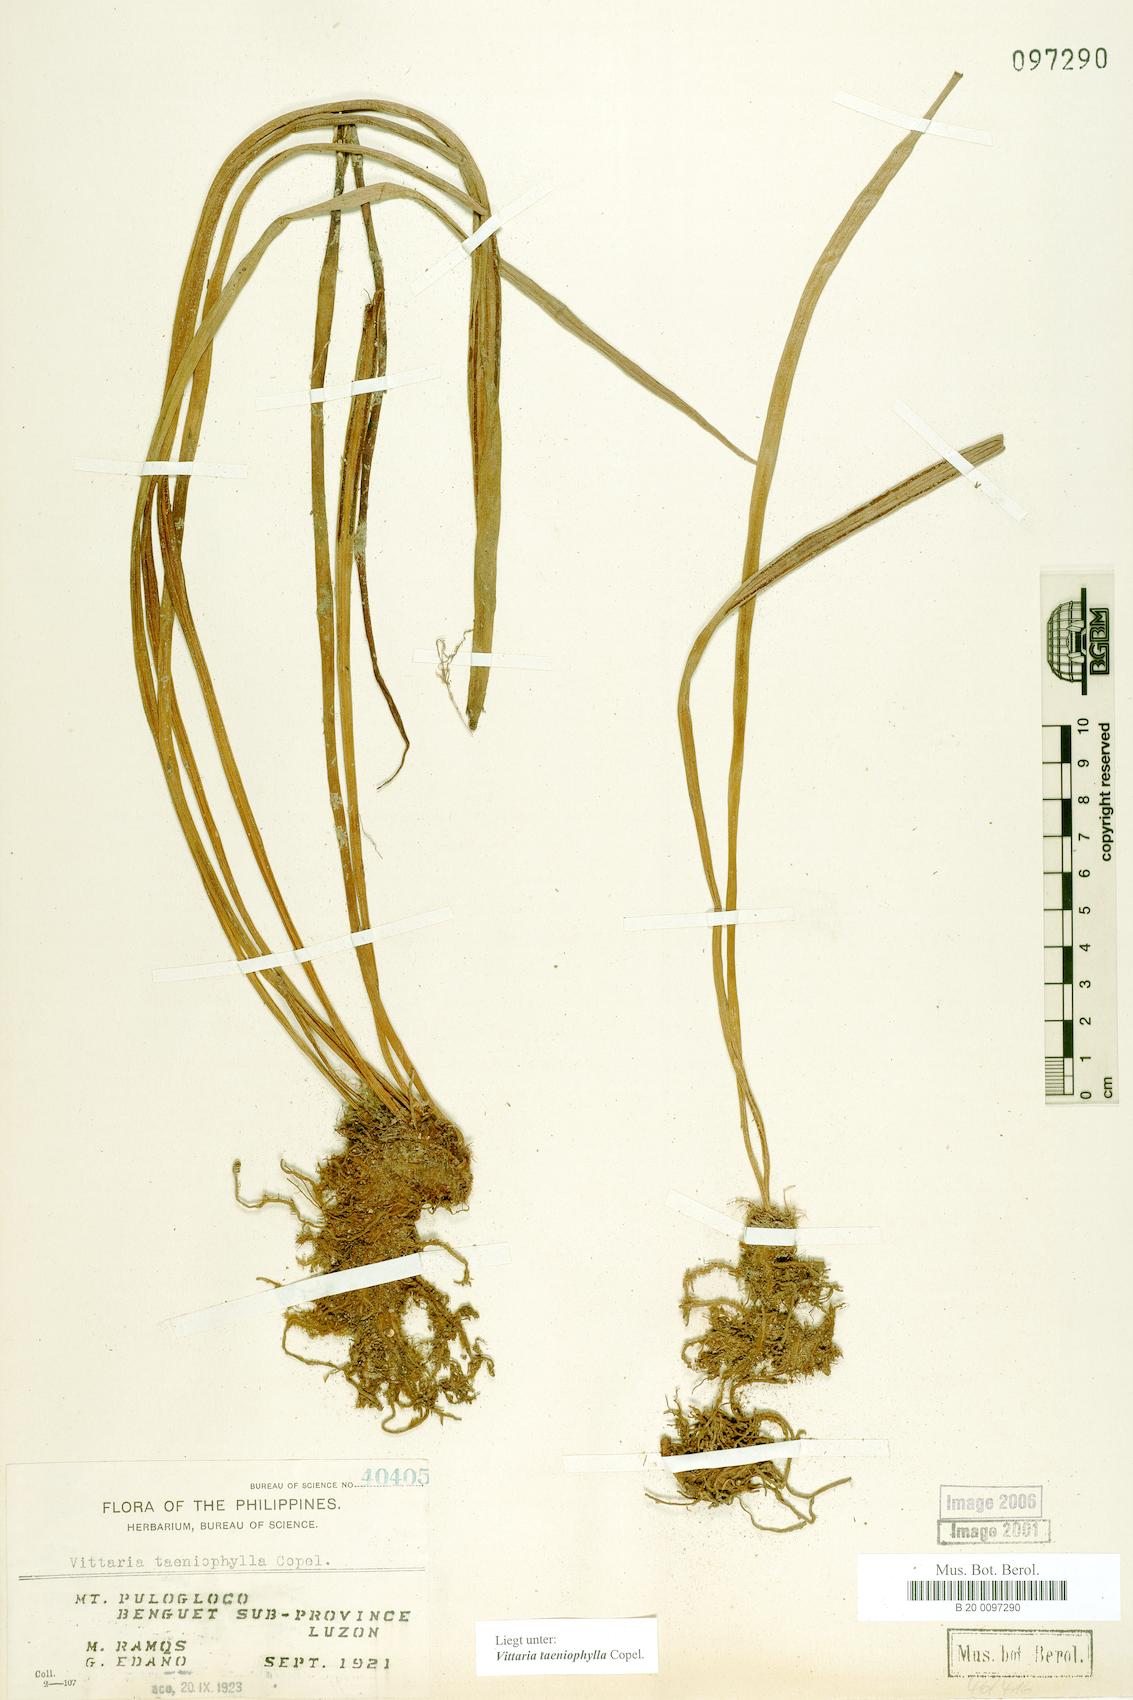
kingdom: Plantae
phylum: Tracheophyta
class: Polypodiopsida
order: Polypodiales
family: Pteridaceae
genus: Haplopteris
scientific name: Haplopteris taeniophylla
